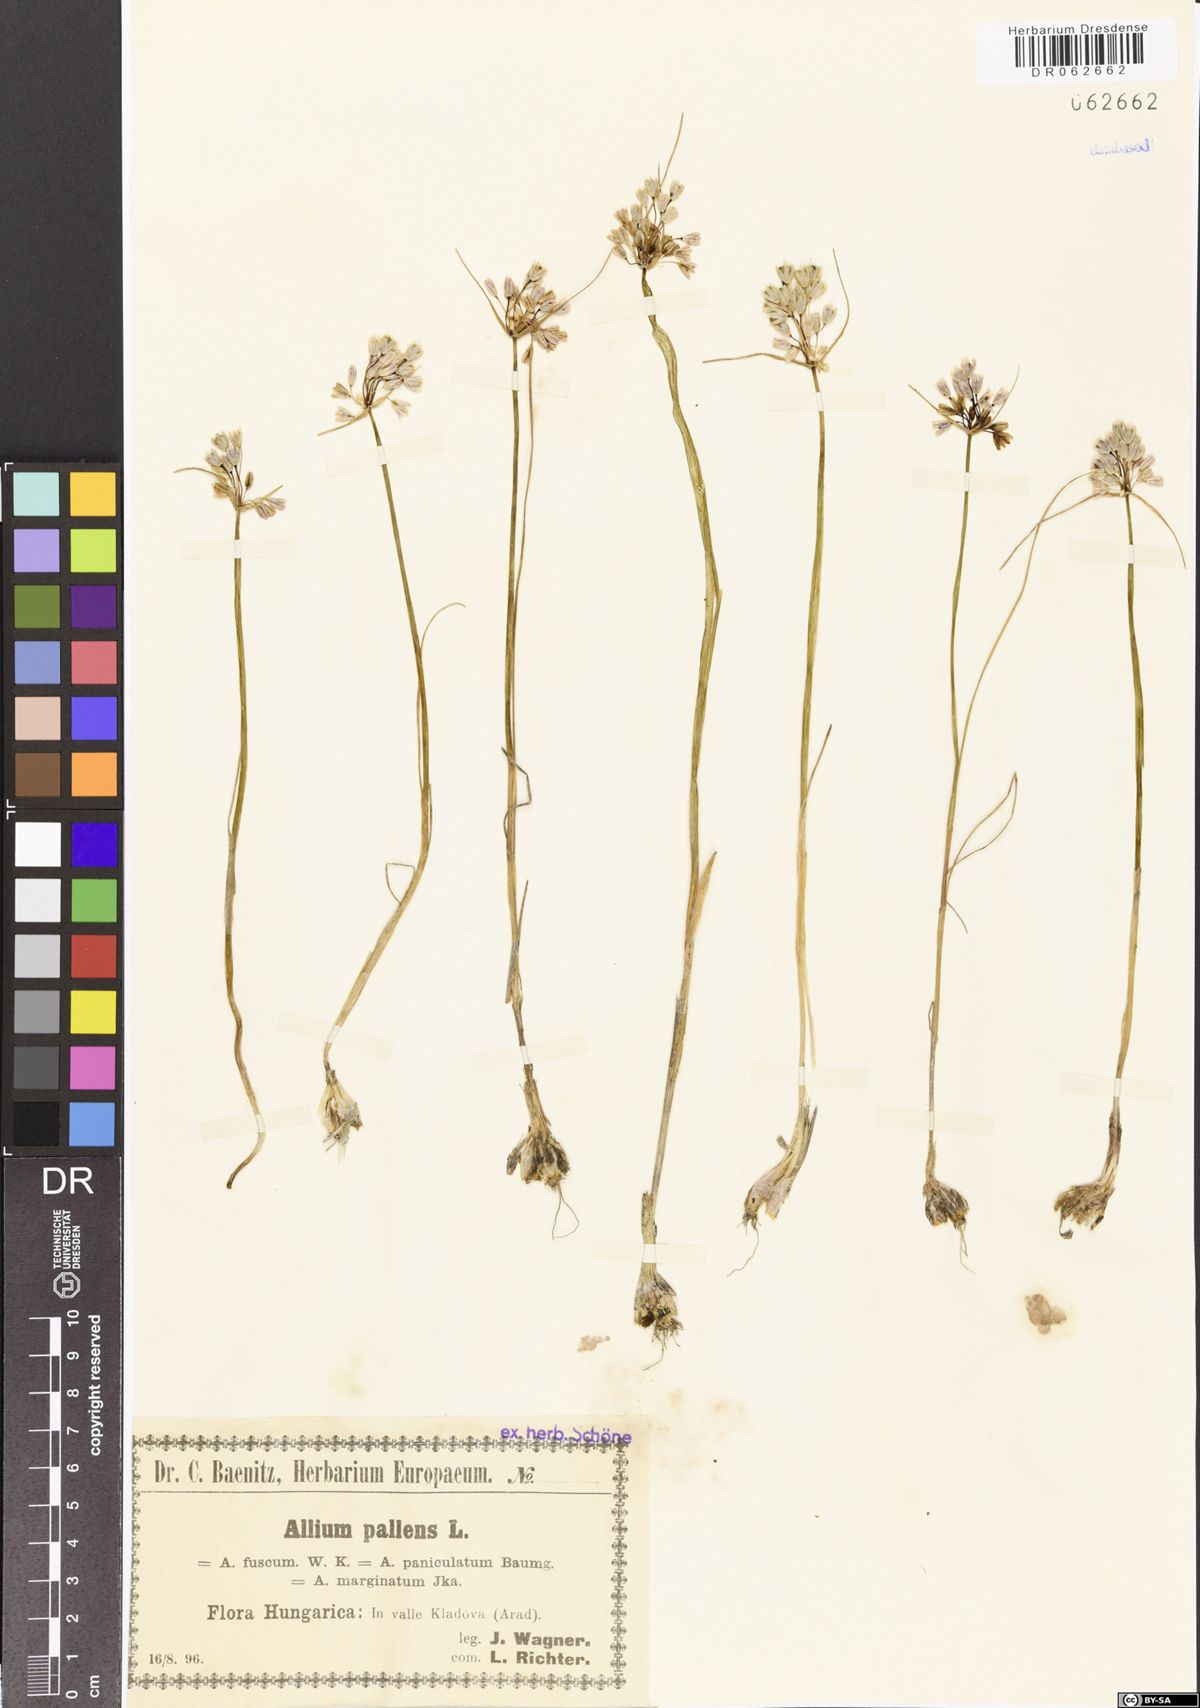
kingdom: Plantae
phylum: Tracheophyta
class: Liliopsida
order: Asparagales
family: Amaryllidaceae
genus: Allium
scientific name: Allium pallens
